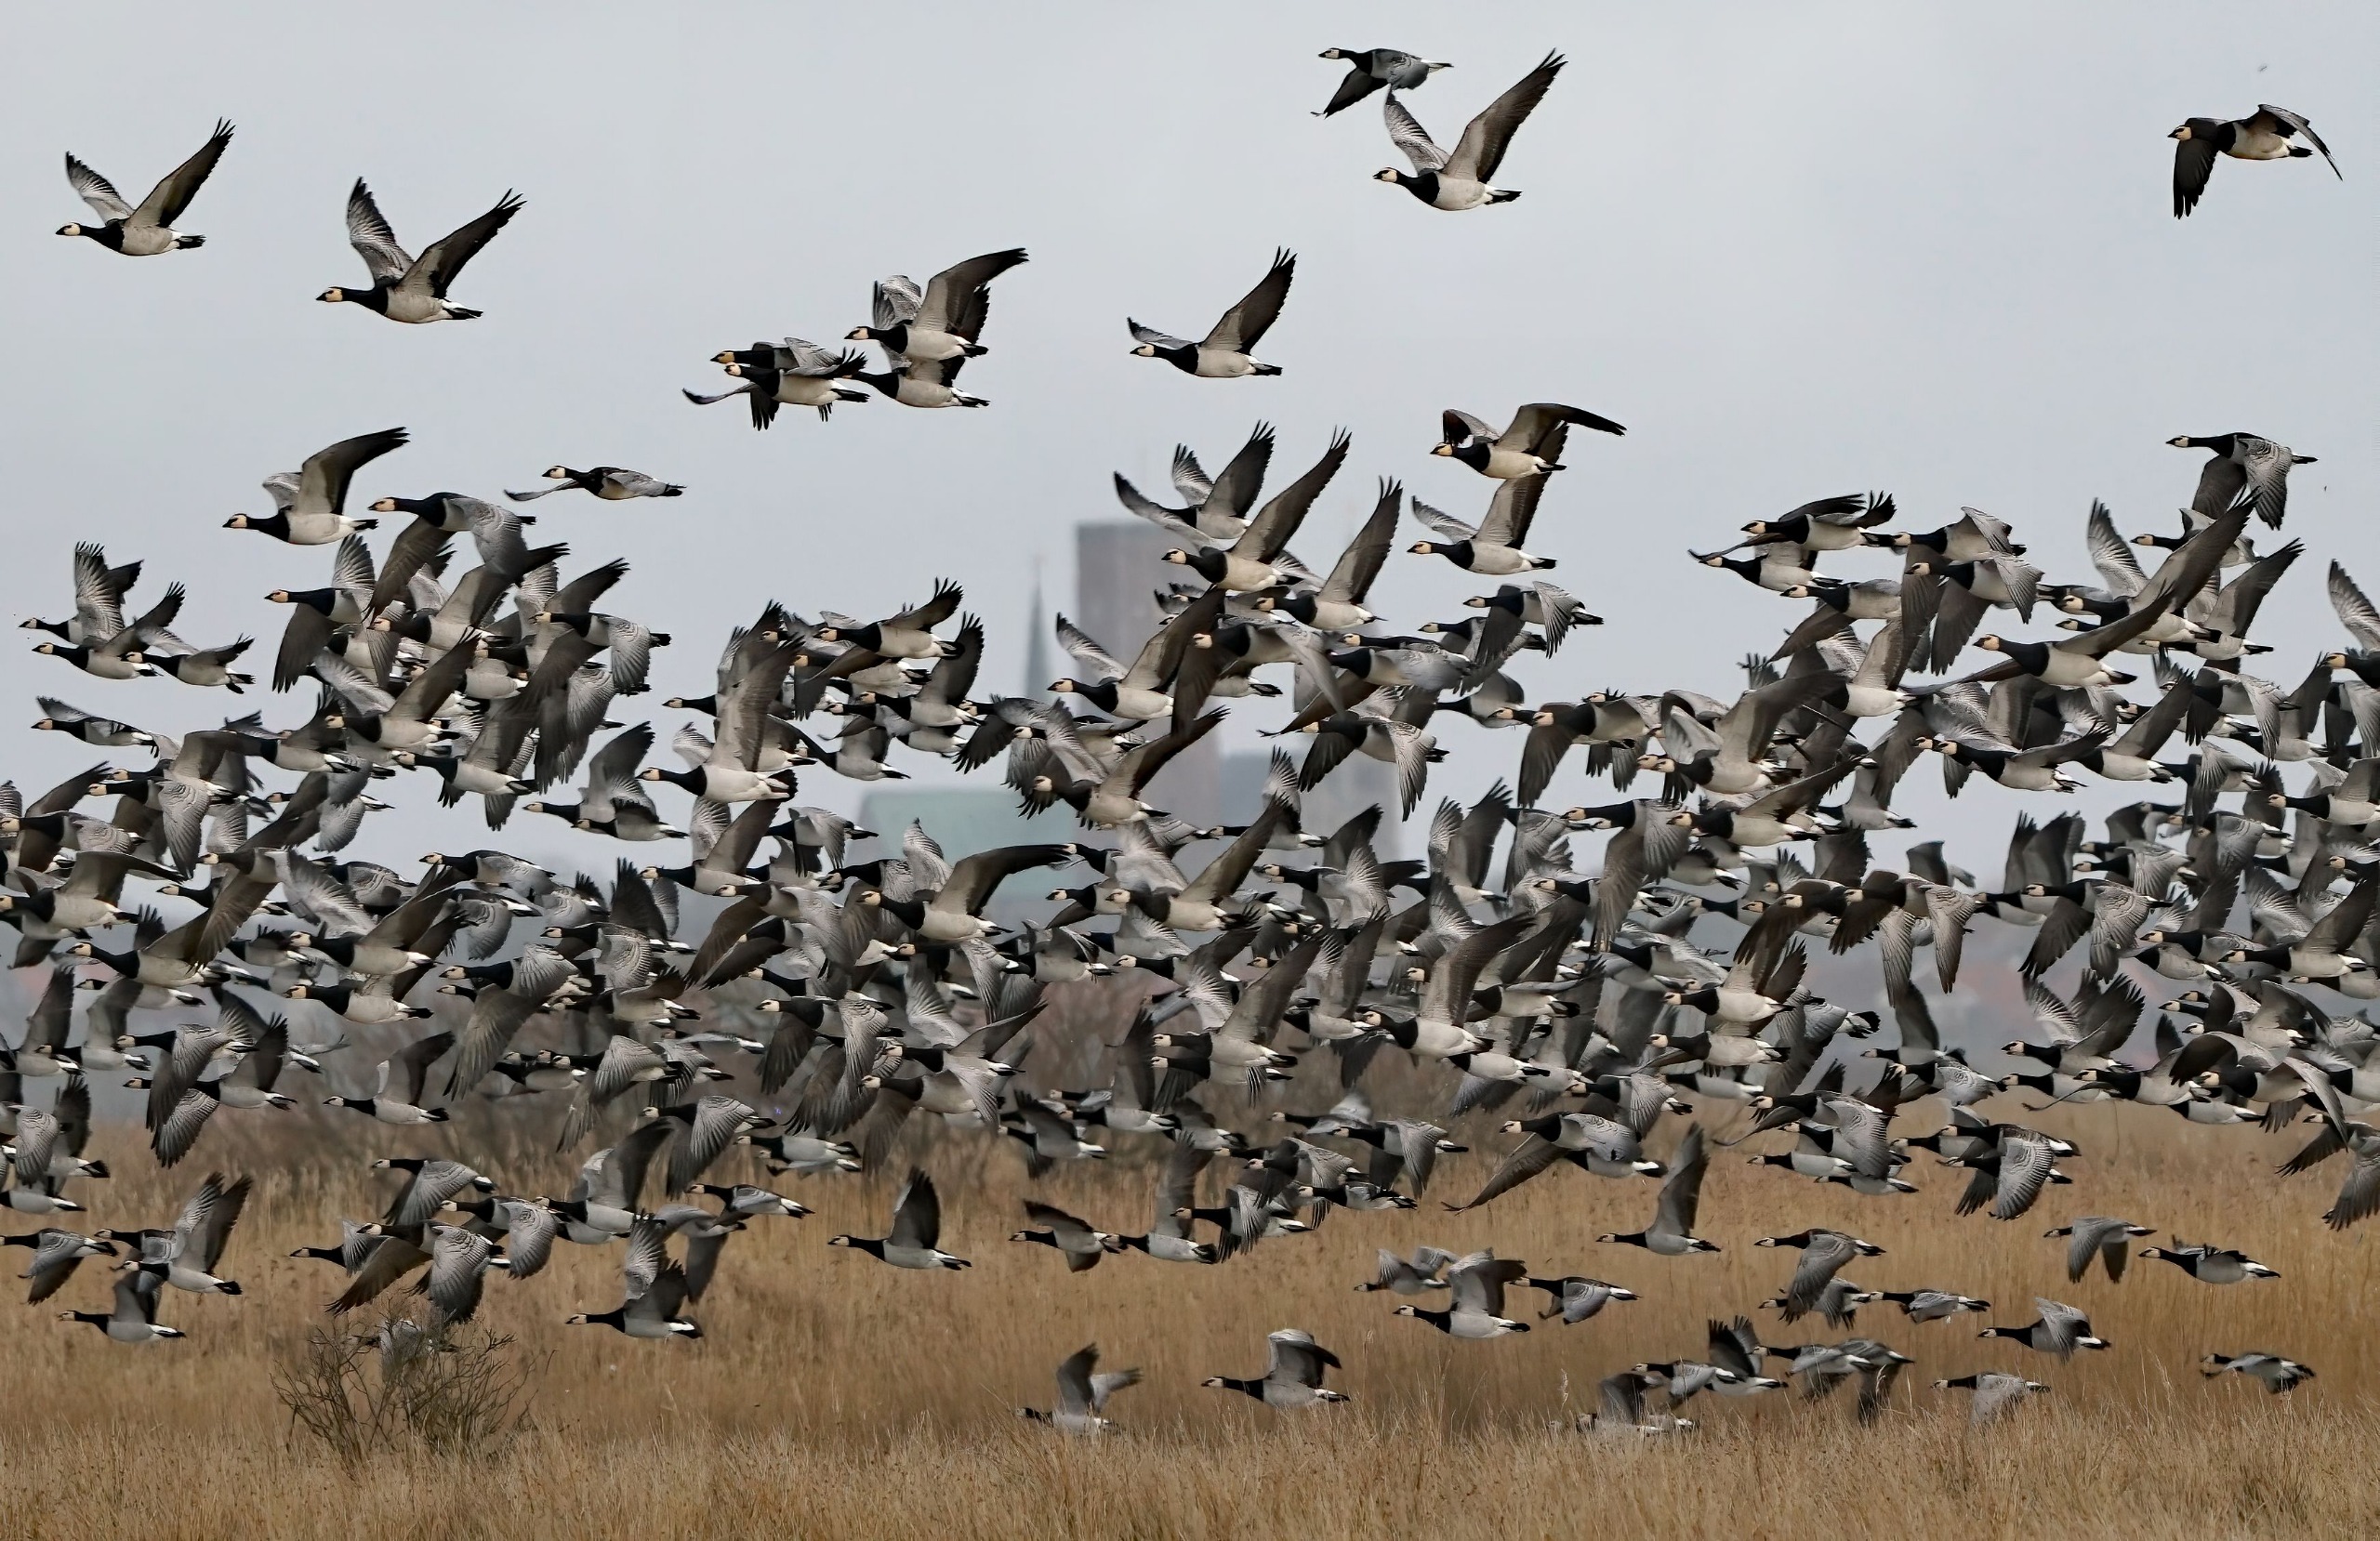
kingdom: Animalia
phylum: Chordata
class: Aves
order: Anseriformes
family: Anatidae
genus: Branta
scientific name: Branta leucopsis
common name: Bramgås
